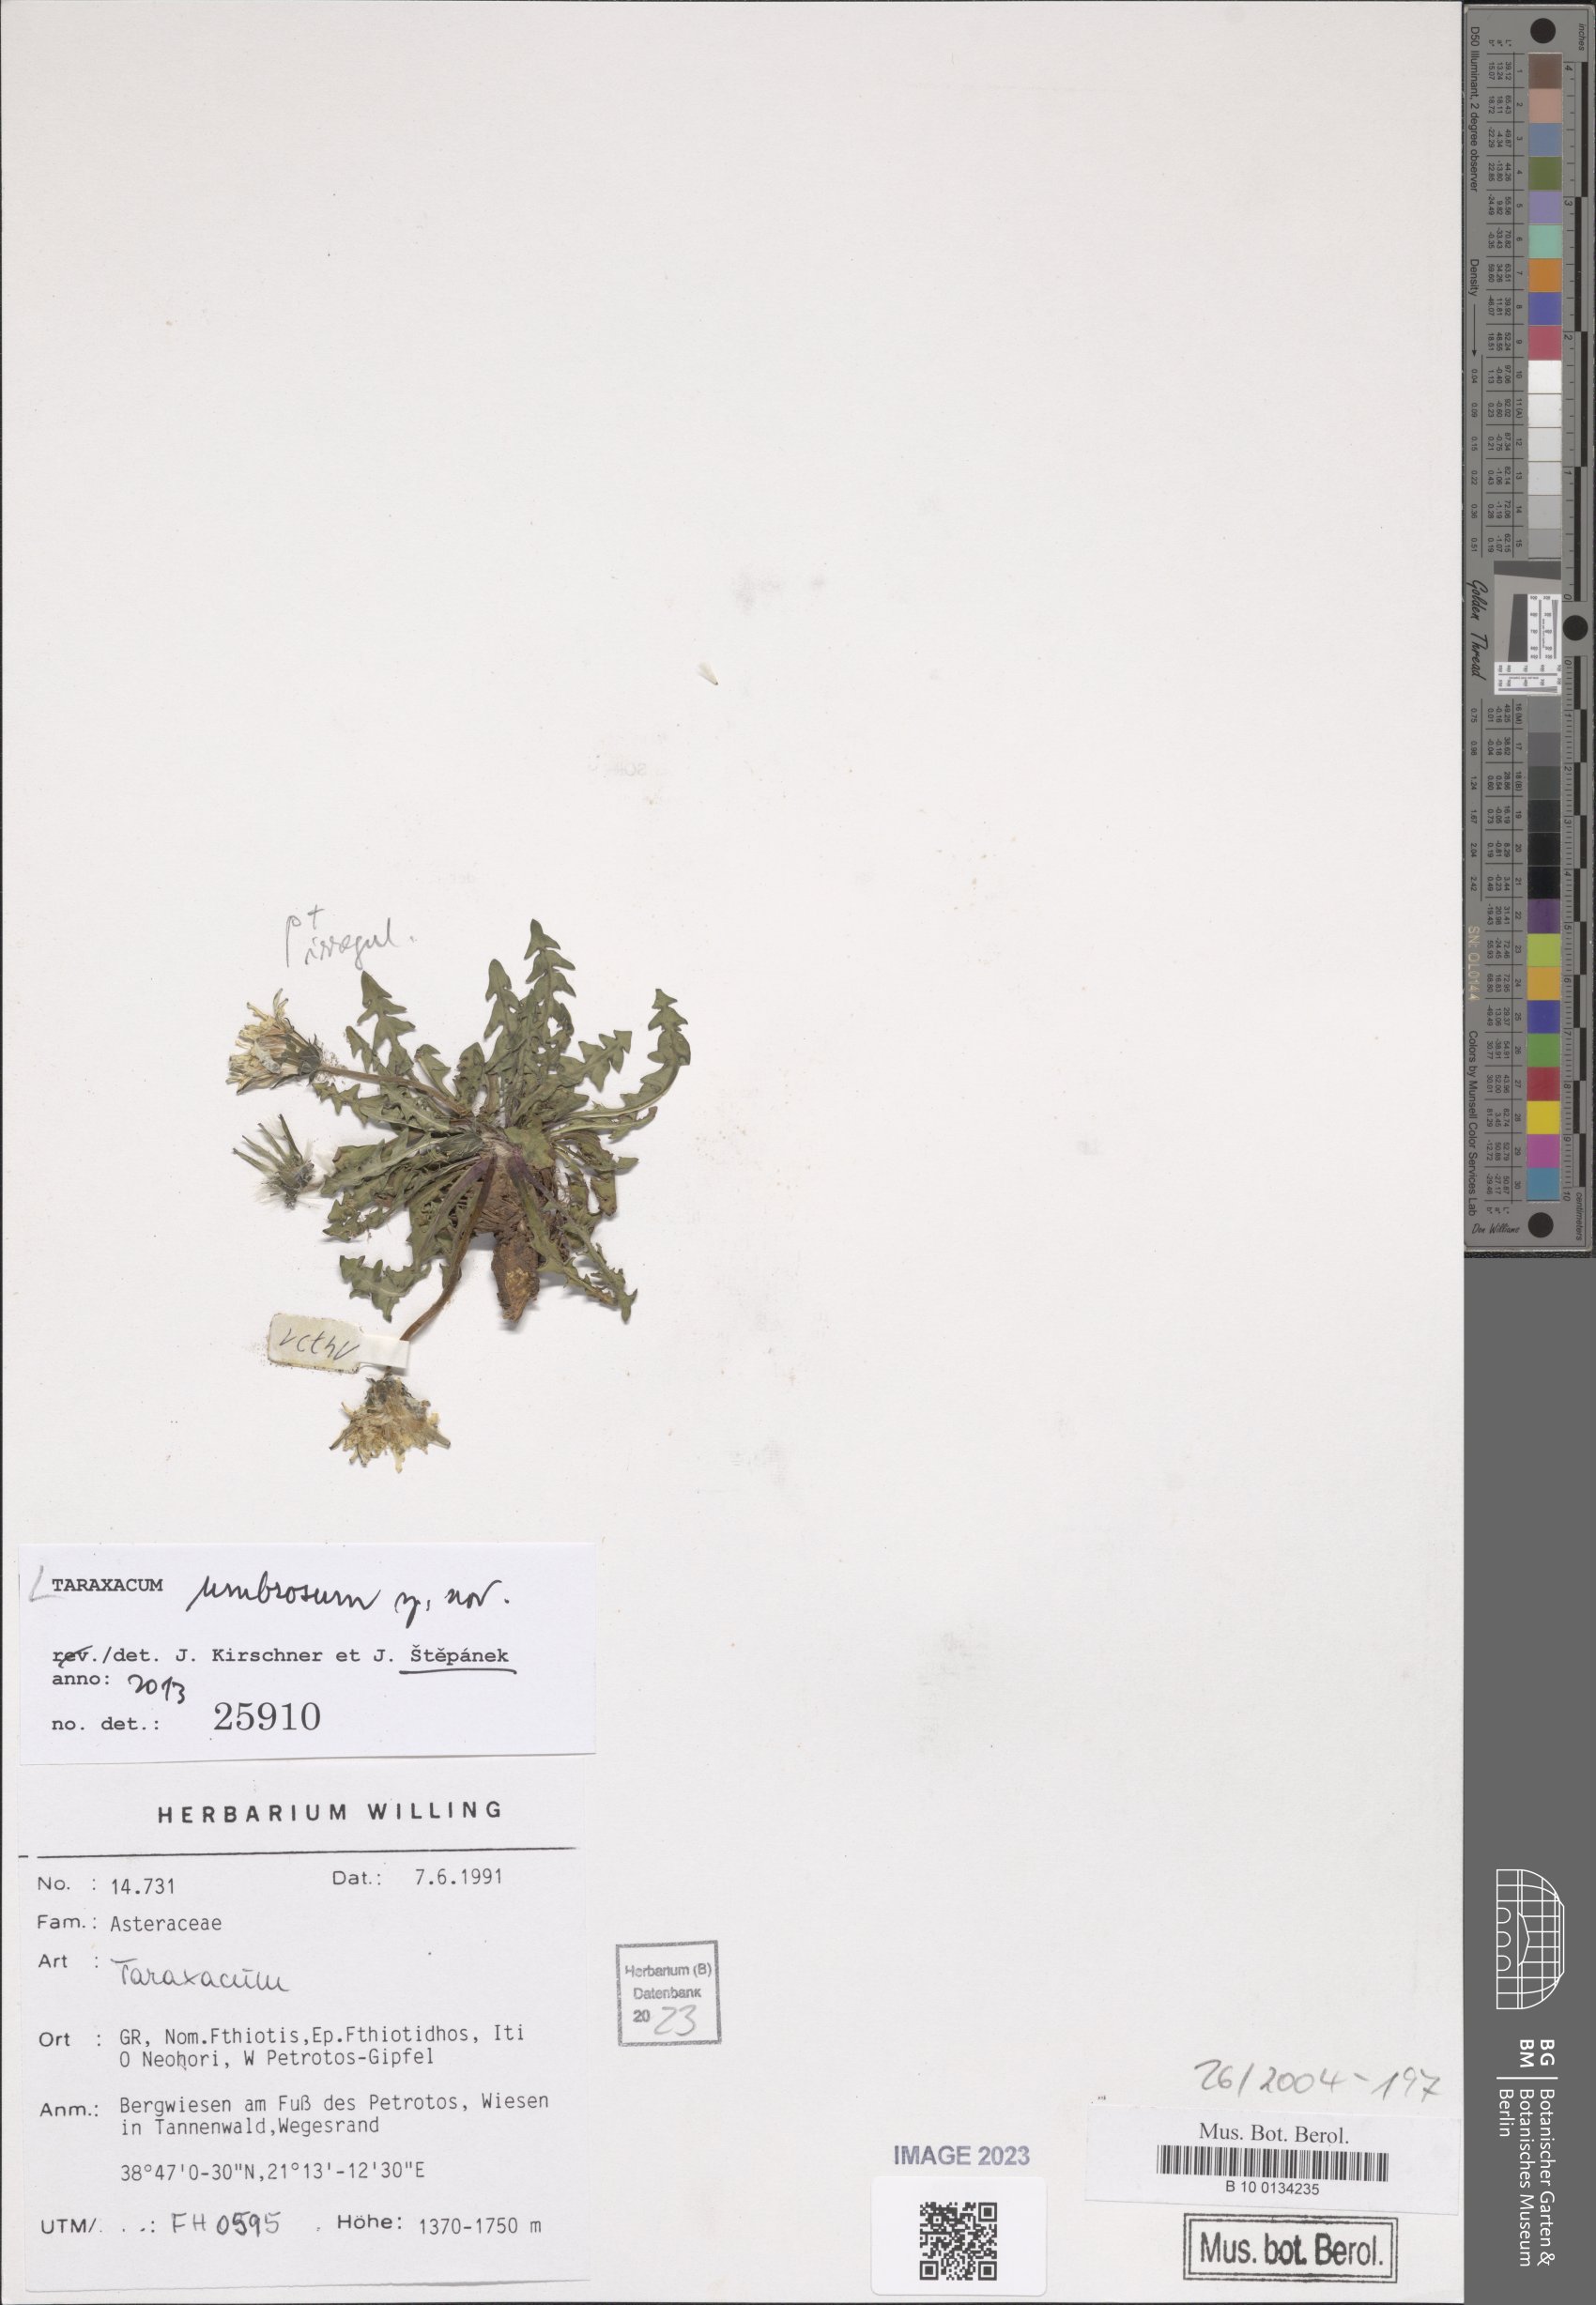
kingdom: Plantae
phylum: Tracheophyta
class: Magnoliopsida
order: Asterales
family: Asteraceae
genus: Taraxacum
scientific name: Taraxacum umbrosum
